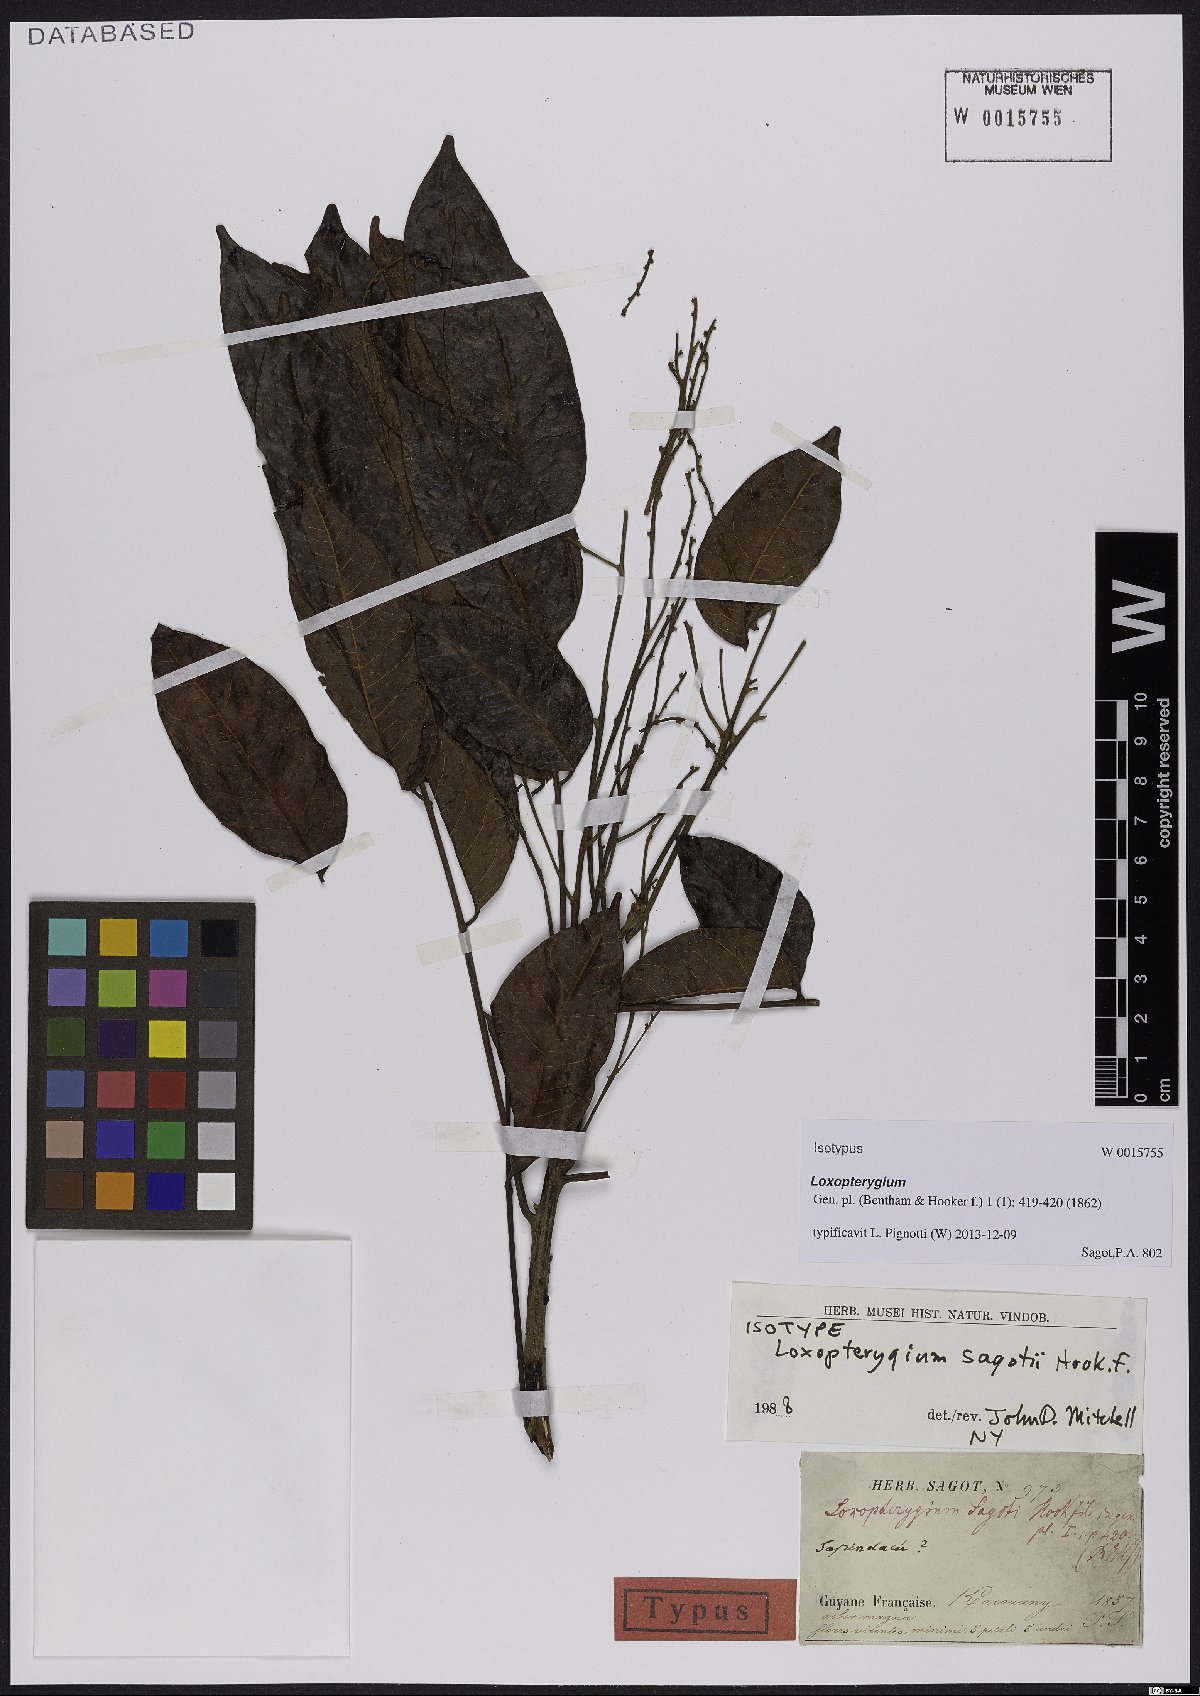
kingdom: Plantae
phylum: Tracheophyta
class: Magnoliopsida
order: Sapindales
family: Anacardiaceae
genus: Loxopterygium
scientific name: Loxopterygium sagotii
